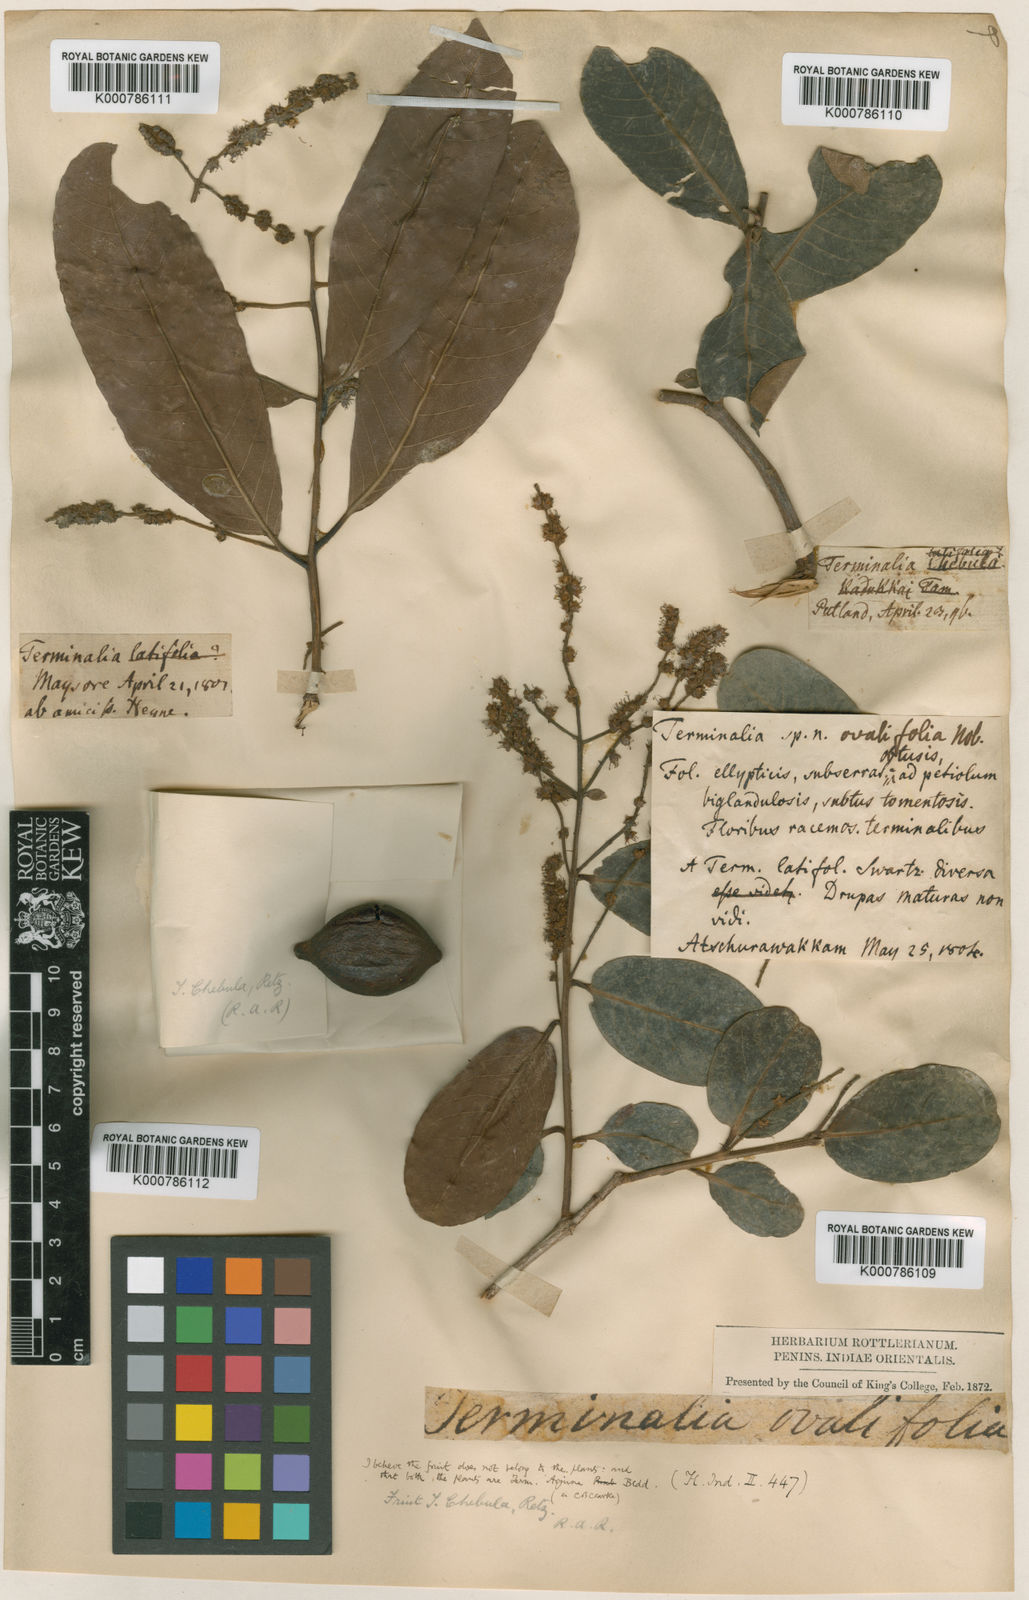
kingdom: Plantae
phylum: Tracheophyta
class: Magnoliopsida
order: Myrtales
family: Combretaceae
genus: Terminalia
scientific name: Terminalia
